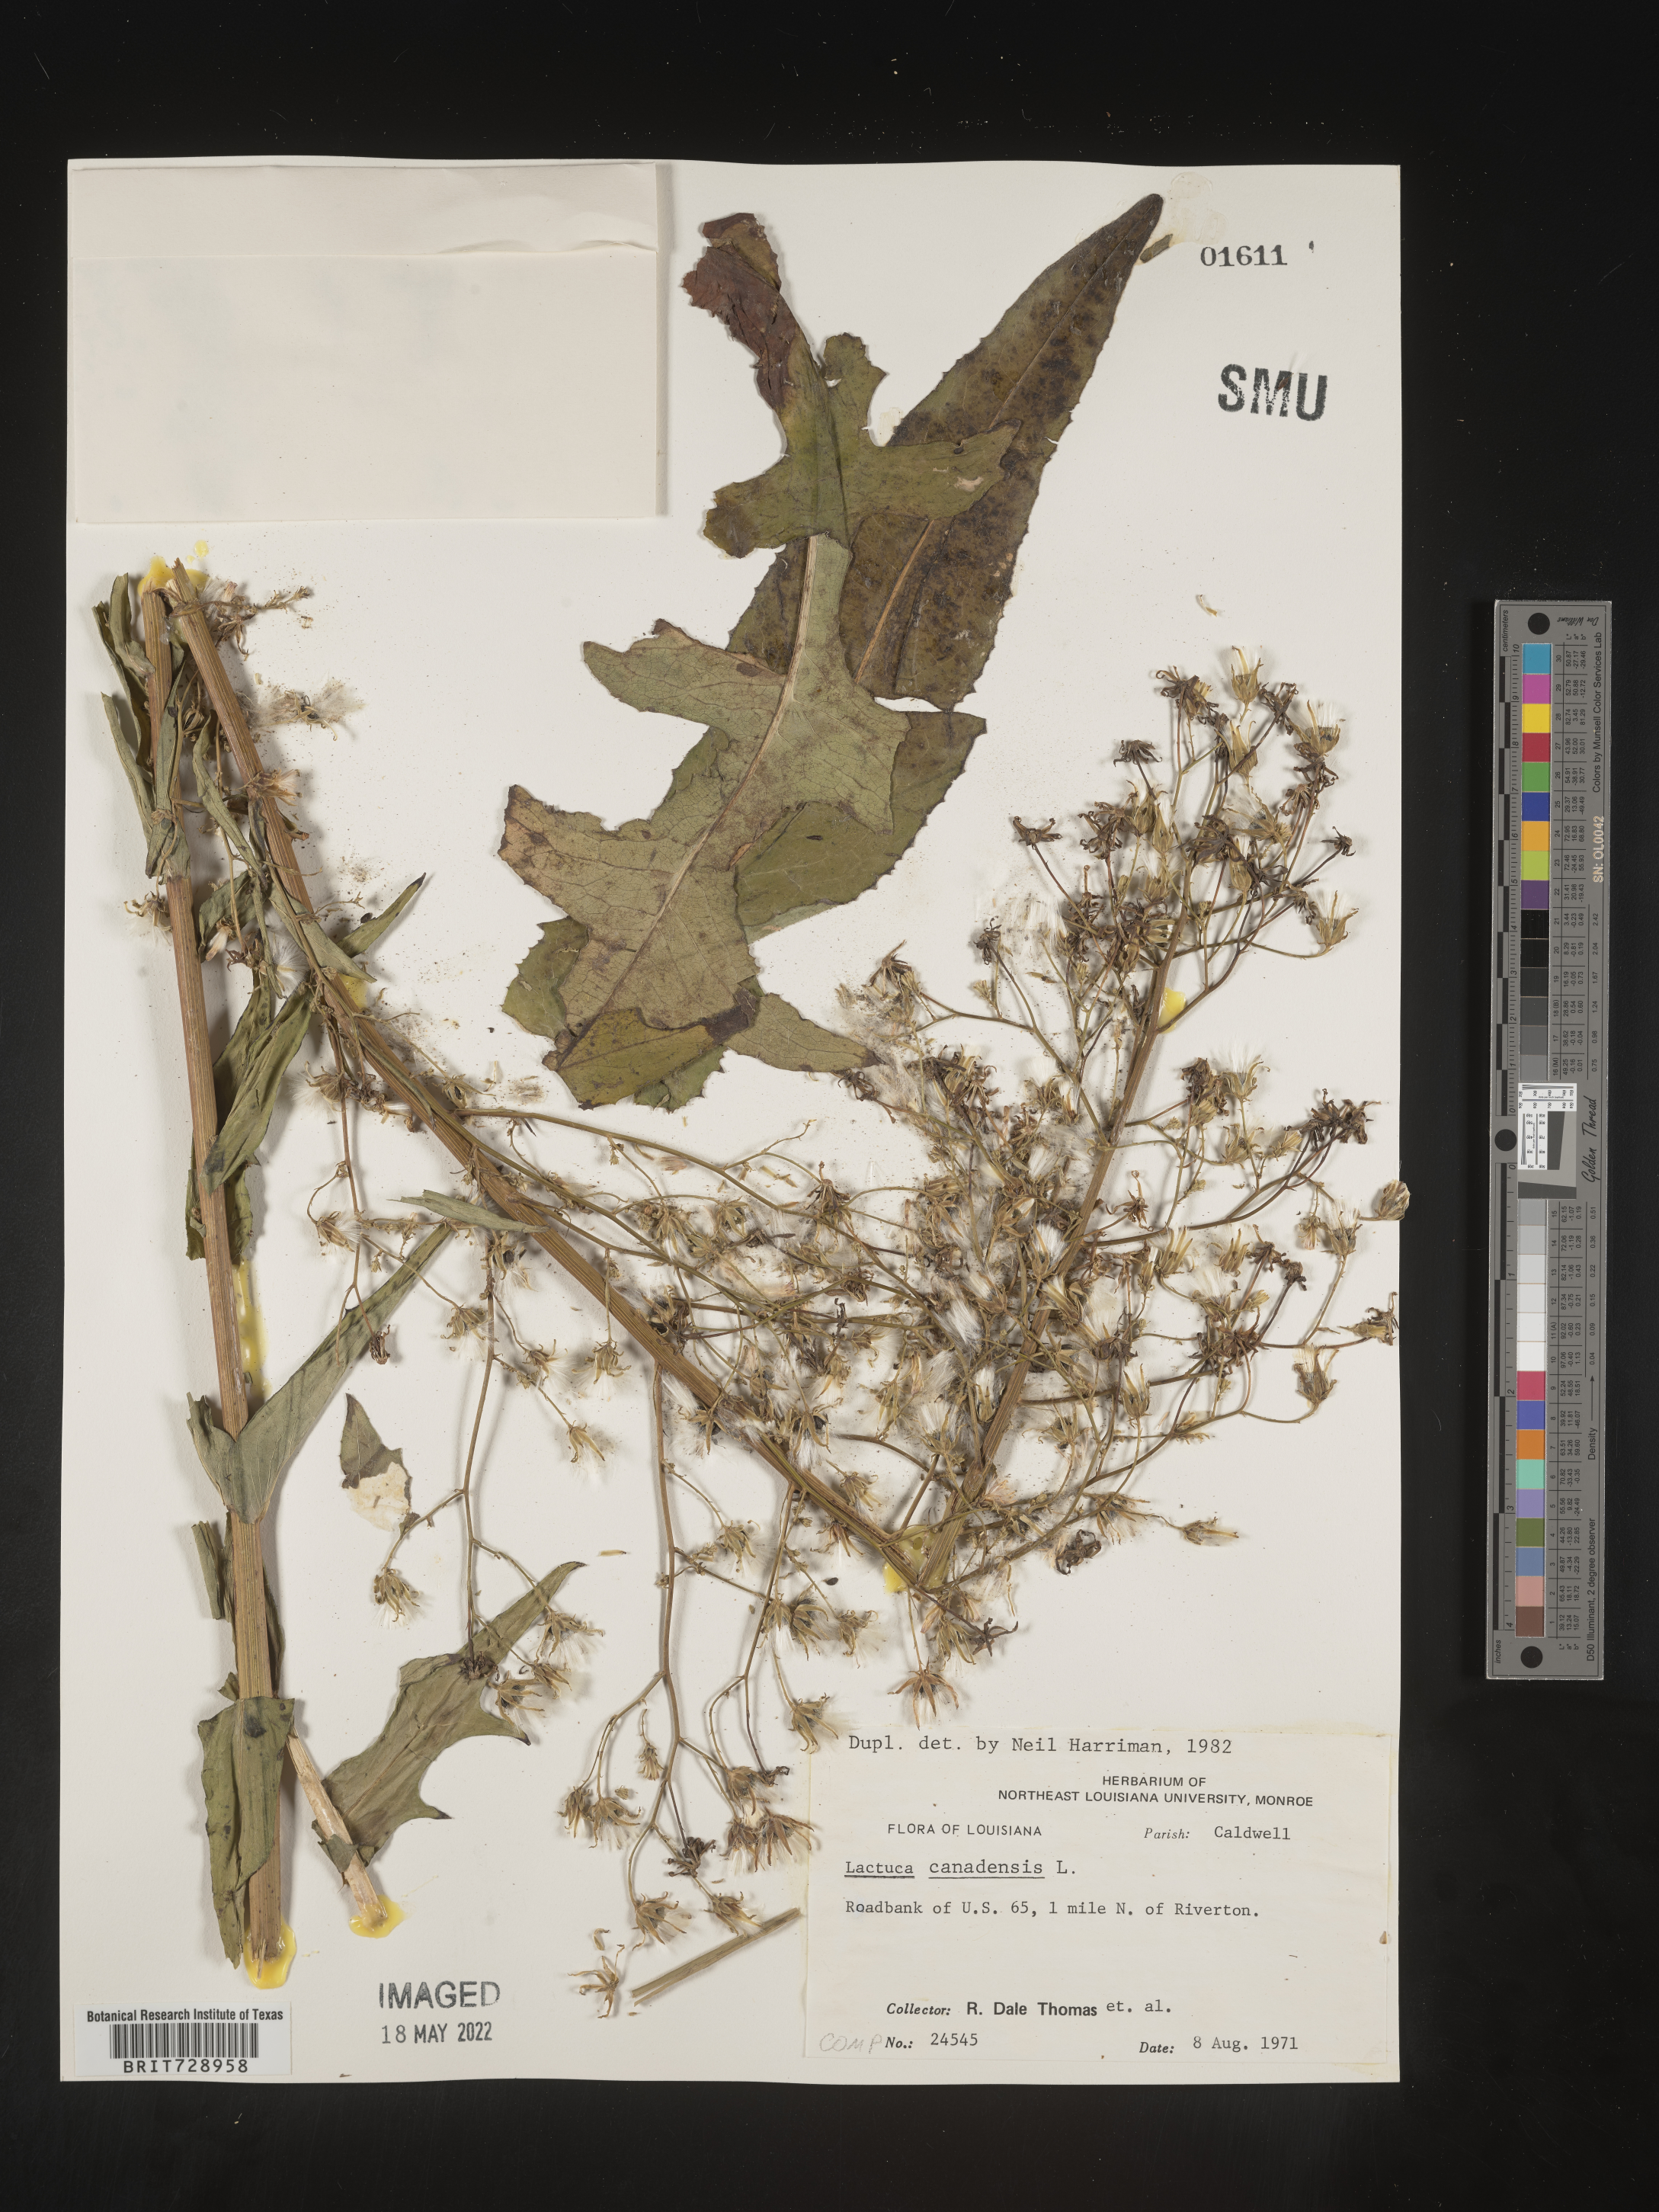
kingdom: Plantae
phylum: Tracheophyta
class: Magnoliopsida
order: Asterales
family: Asteraceae
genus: Lactuca
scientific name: Lactuca canadensis
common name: Canada lettuce
